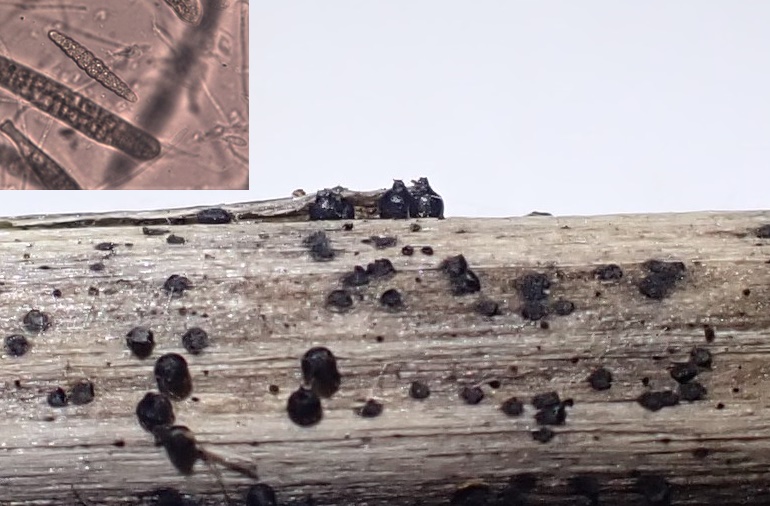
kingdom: Fungi
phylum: Ascomycota
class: Dothideomycetes
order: Pleosporales
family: Leptosphaeriaceae
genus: Leptosphaeria
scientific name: Leptosphaeria acuta
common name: spids kulkegle
